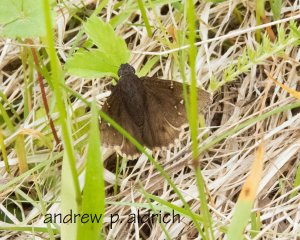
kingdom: Animalia
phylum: Arthropoda
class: Insecta
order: Lepidoptera
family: Hesperiidae
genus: Autochton
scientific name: Autochton
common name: Northern Cloudywing
